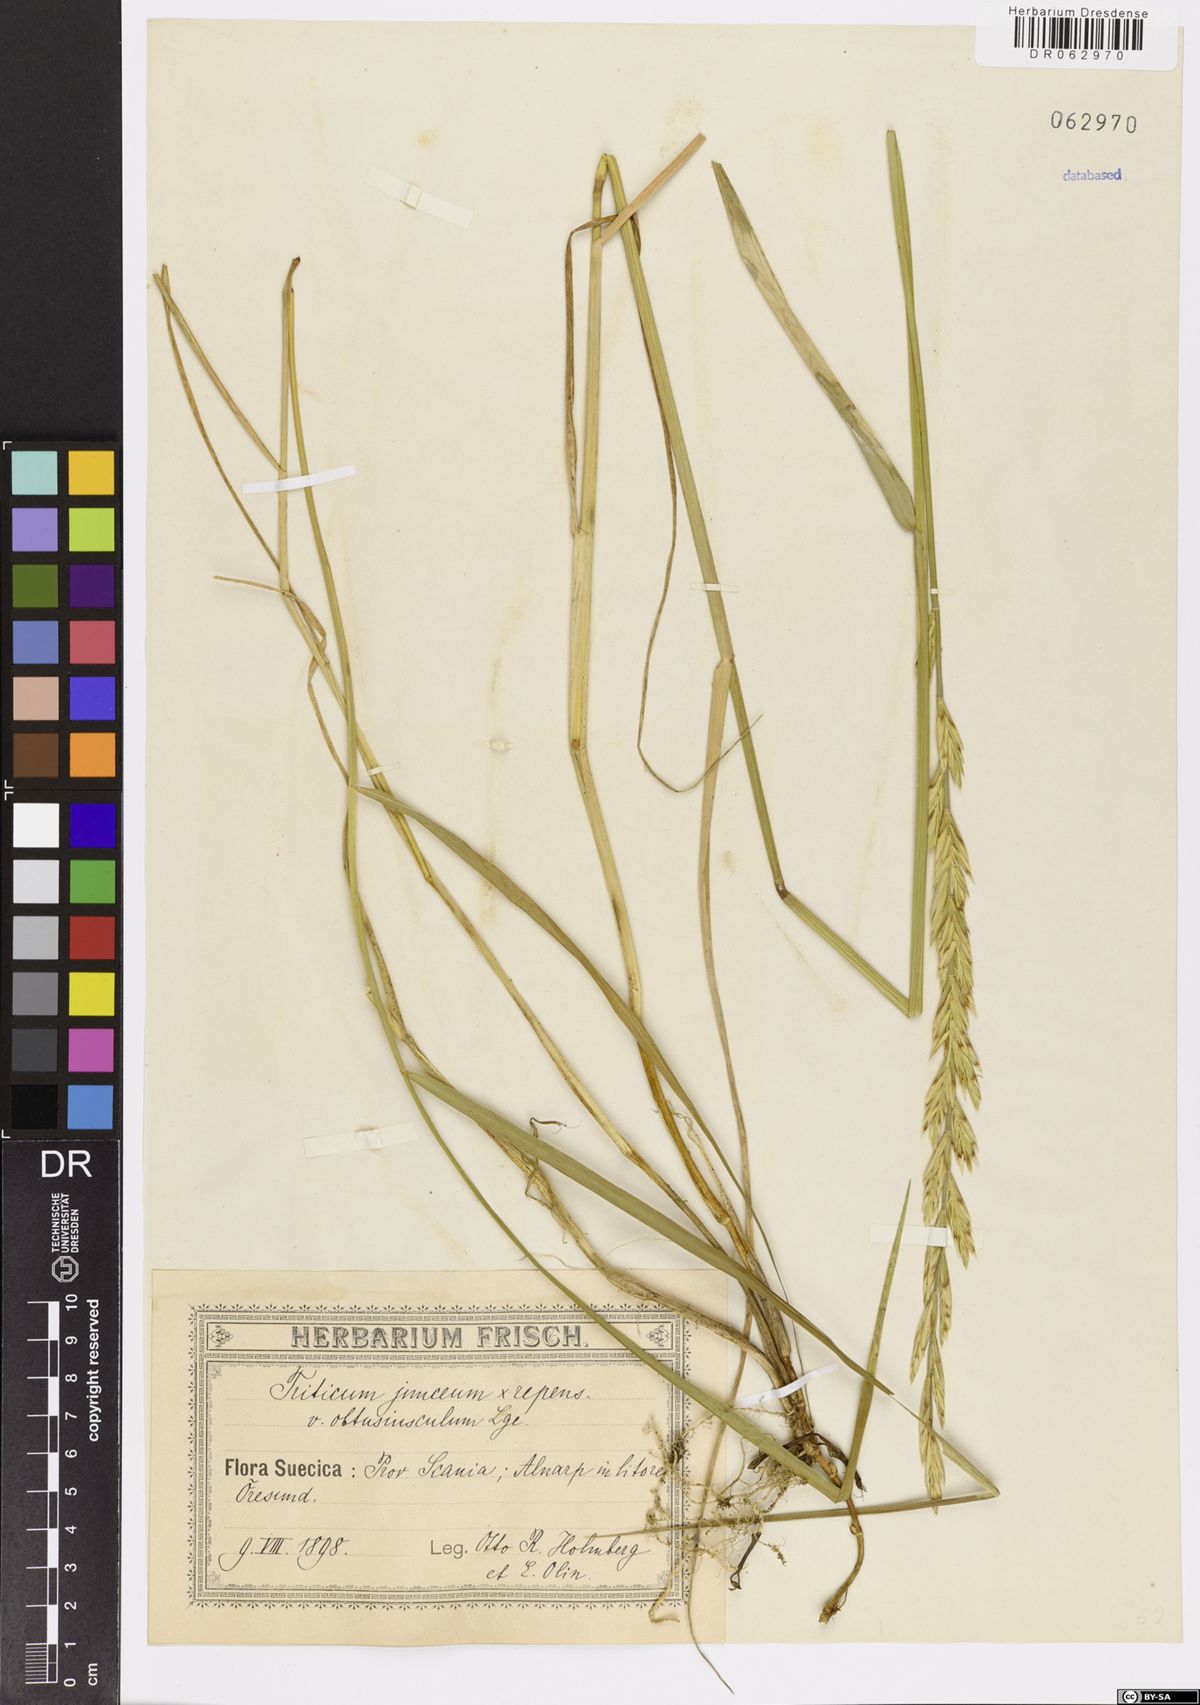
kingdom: Plantae
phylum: Tracheophyta
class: Liliopsida
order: Poales
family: Poaceae
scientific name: Poaceae
